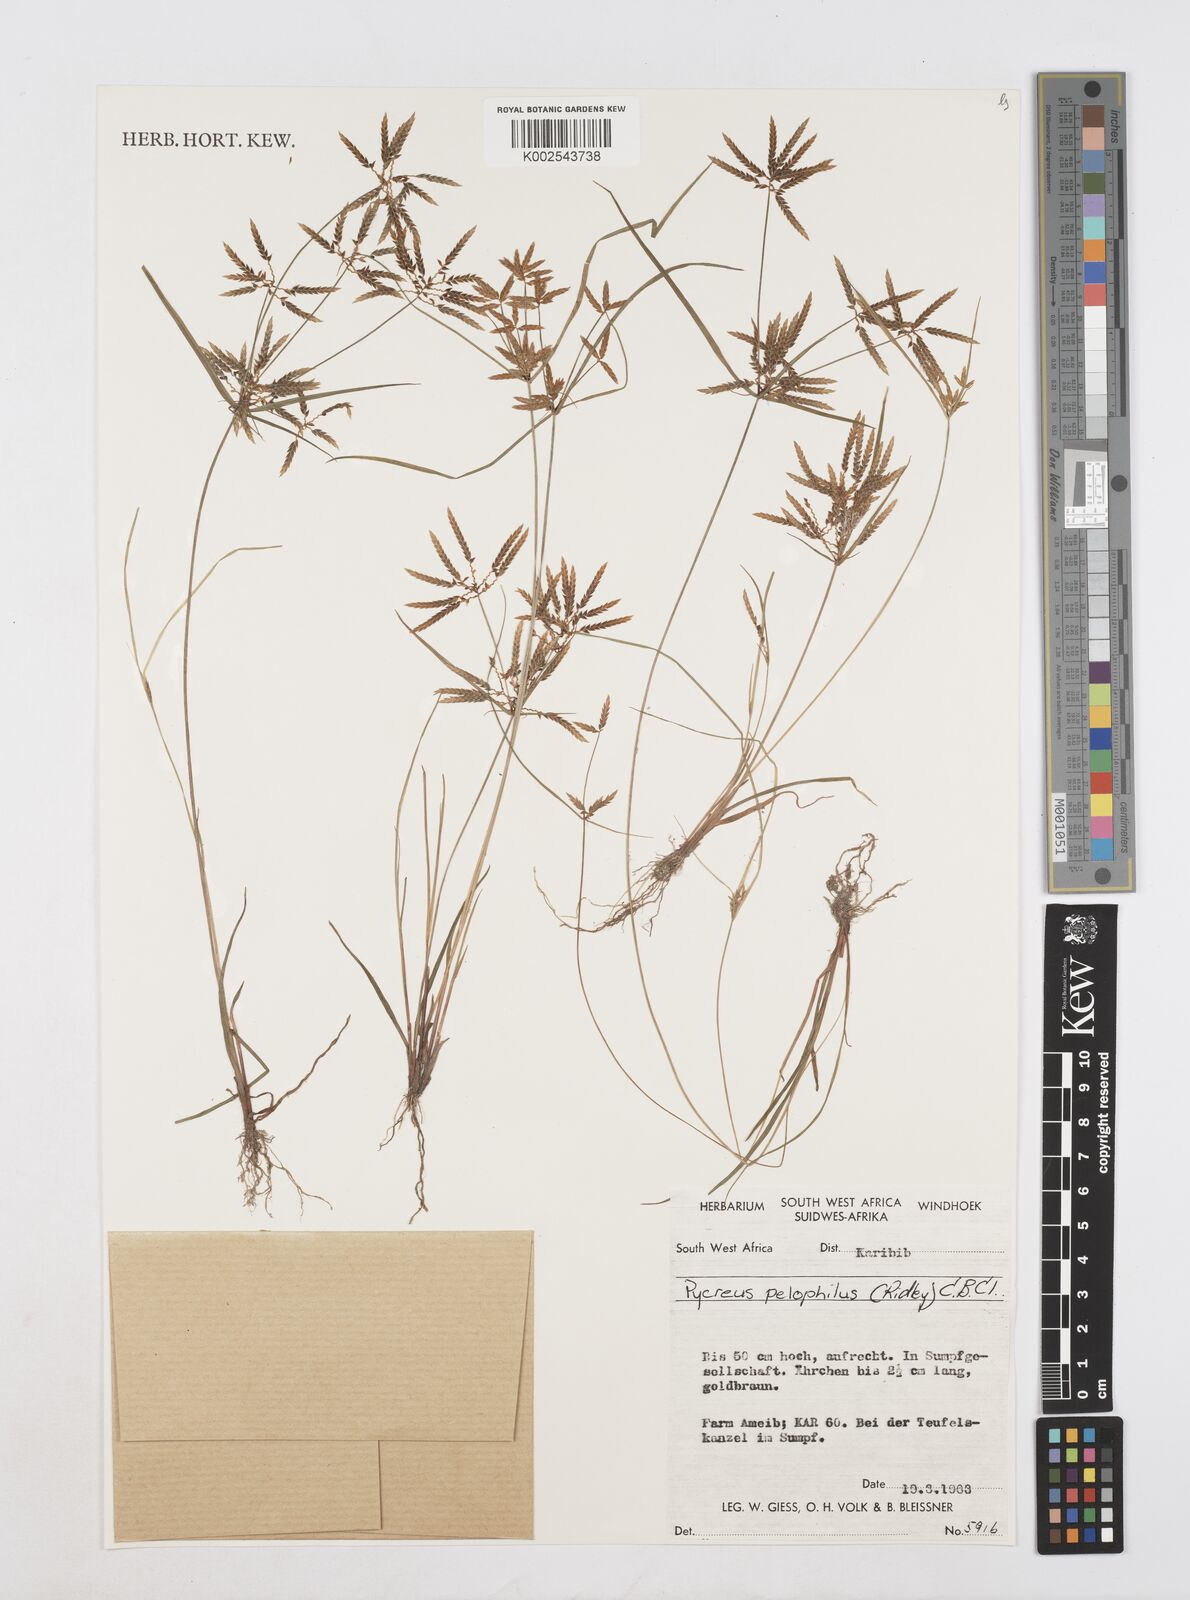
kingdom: Plantae
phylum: Tracheophyta
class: Liliopsida
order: Poales
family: Cyperaceae
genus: Cyperus
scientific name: Cyperus pelophilus
